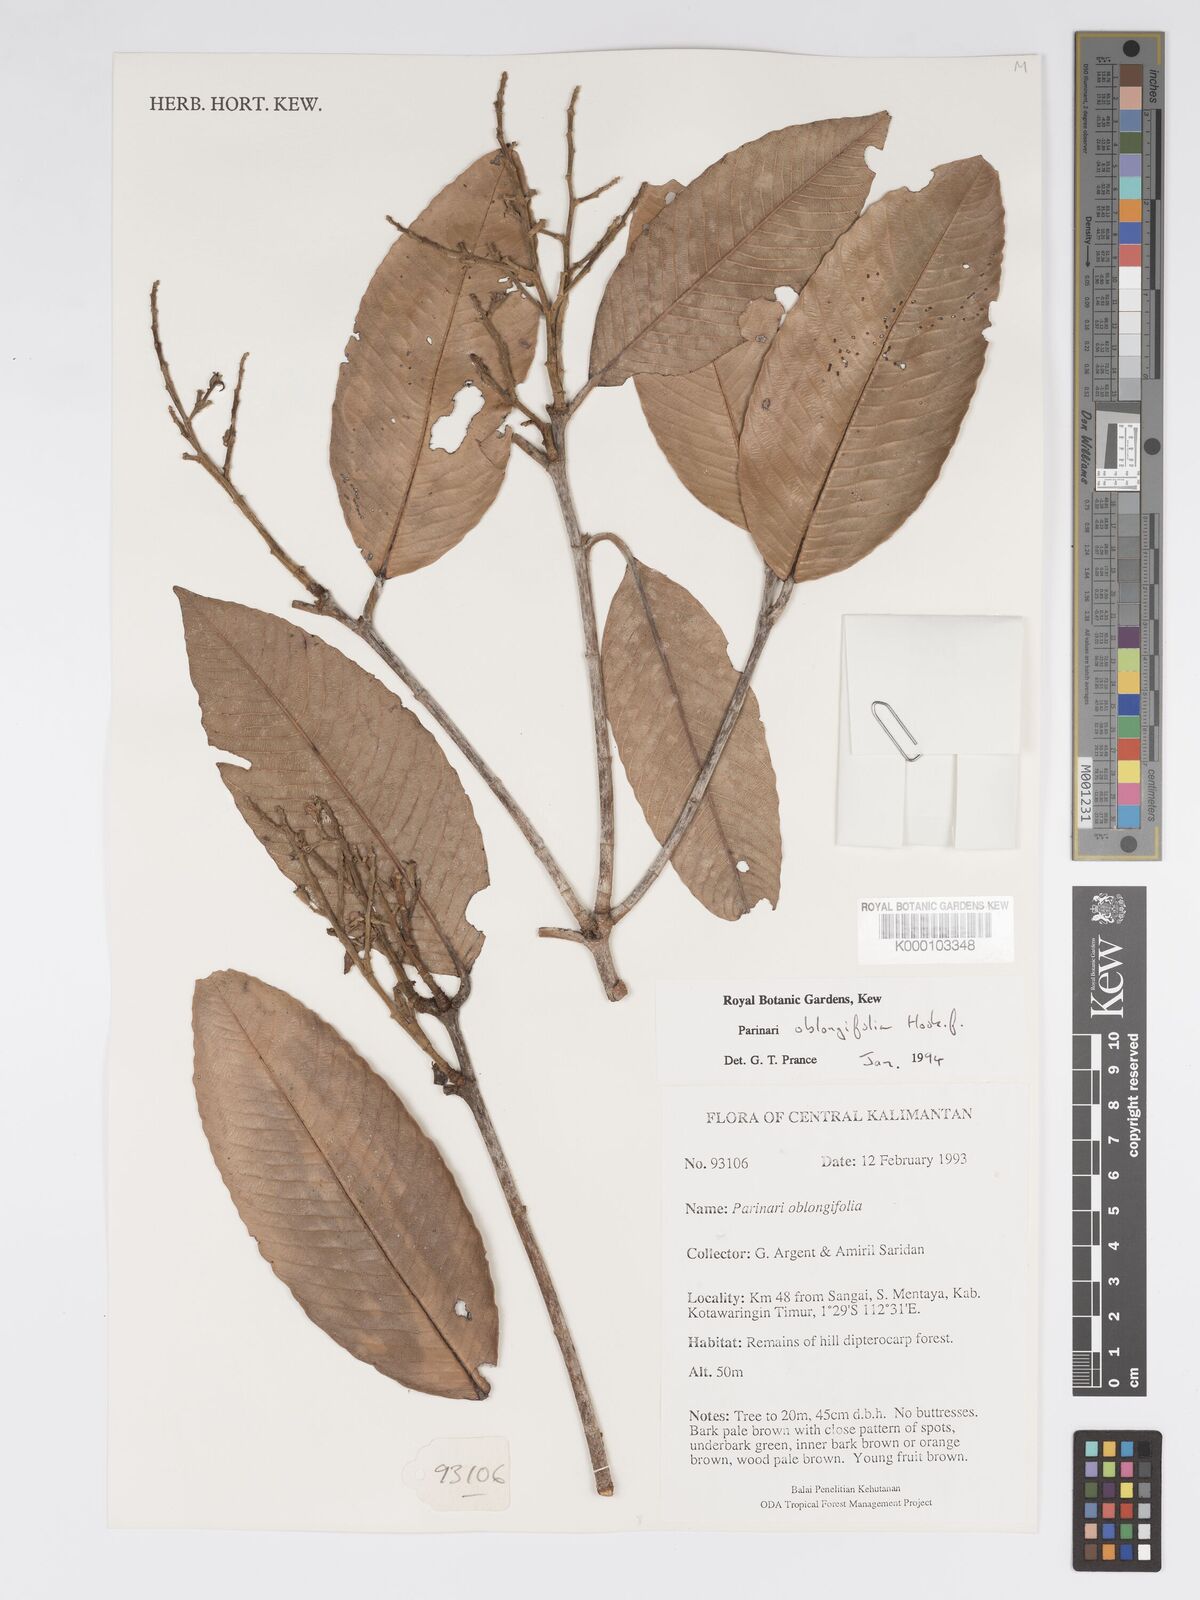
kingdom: Plantae
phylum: Tracheophyta
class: Magnoliopsida
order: Malpighiales
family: Chrysobalanaceae
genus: Parinari
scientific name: Parinari oblongifolia
